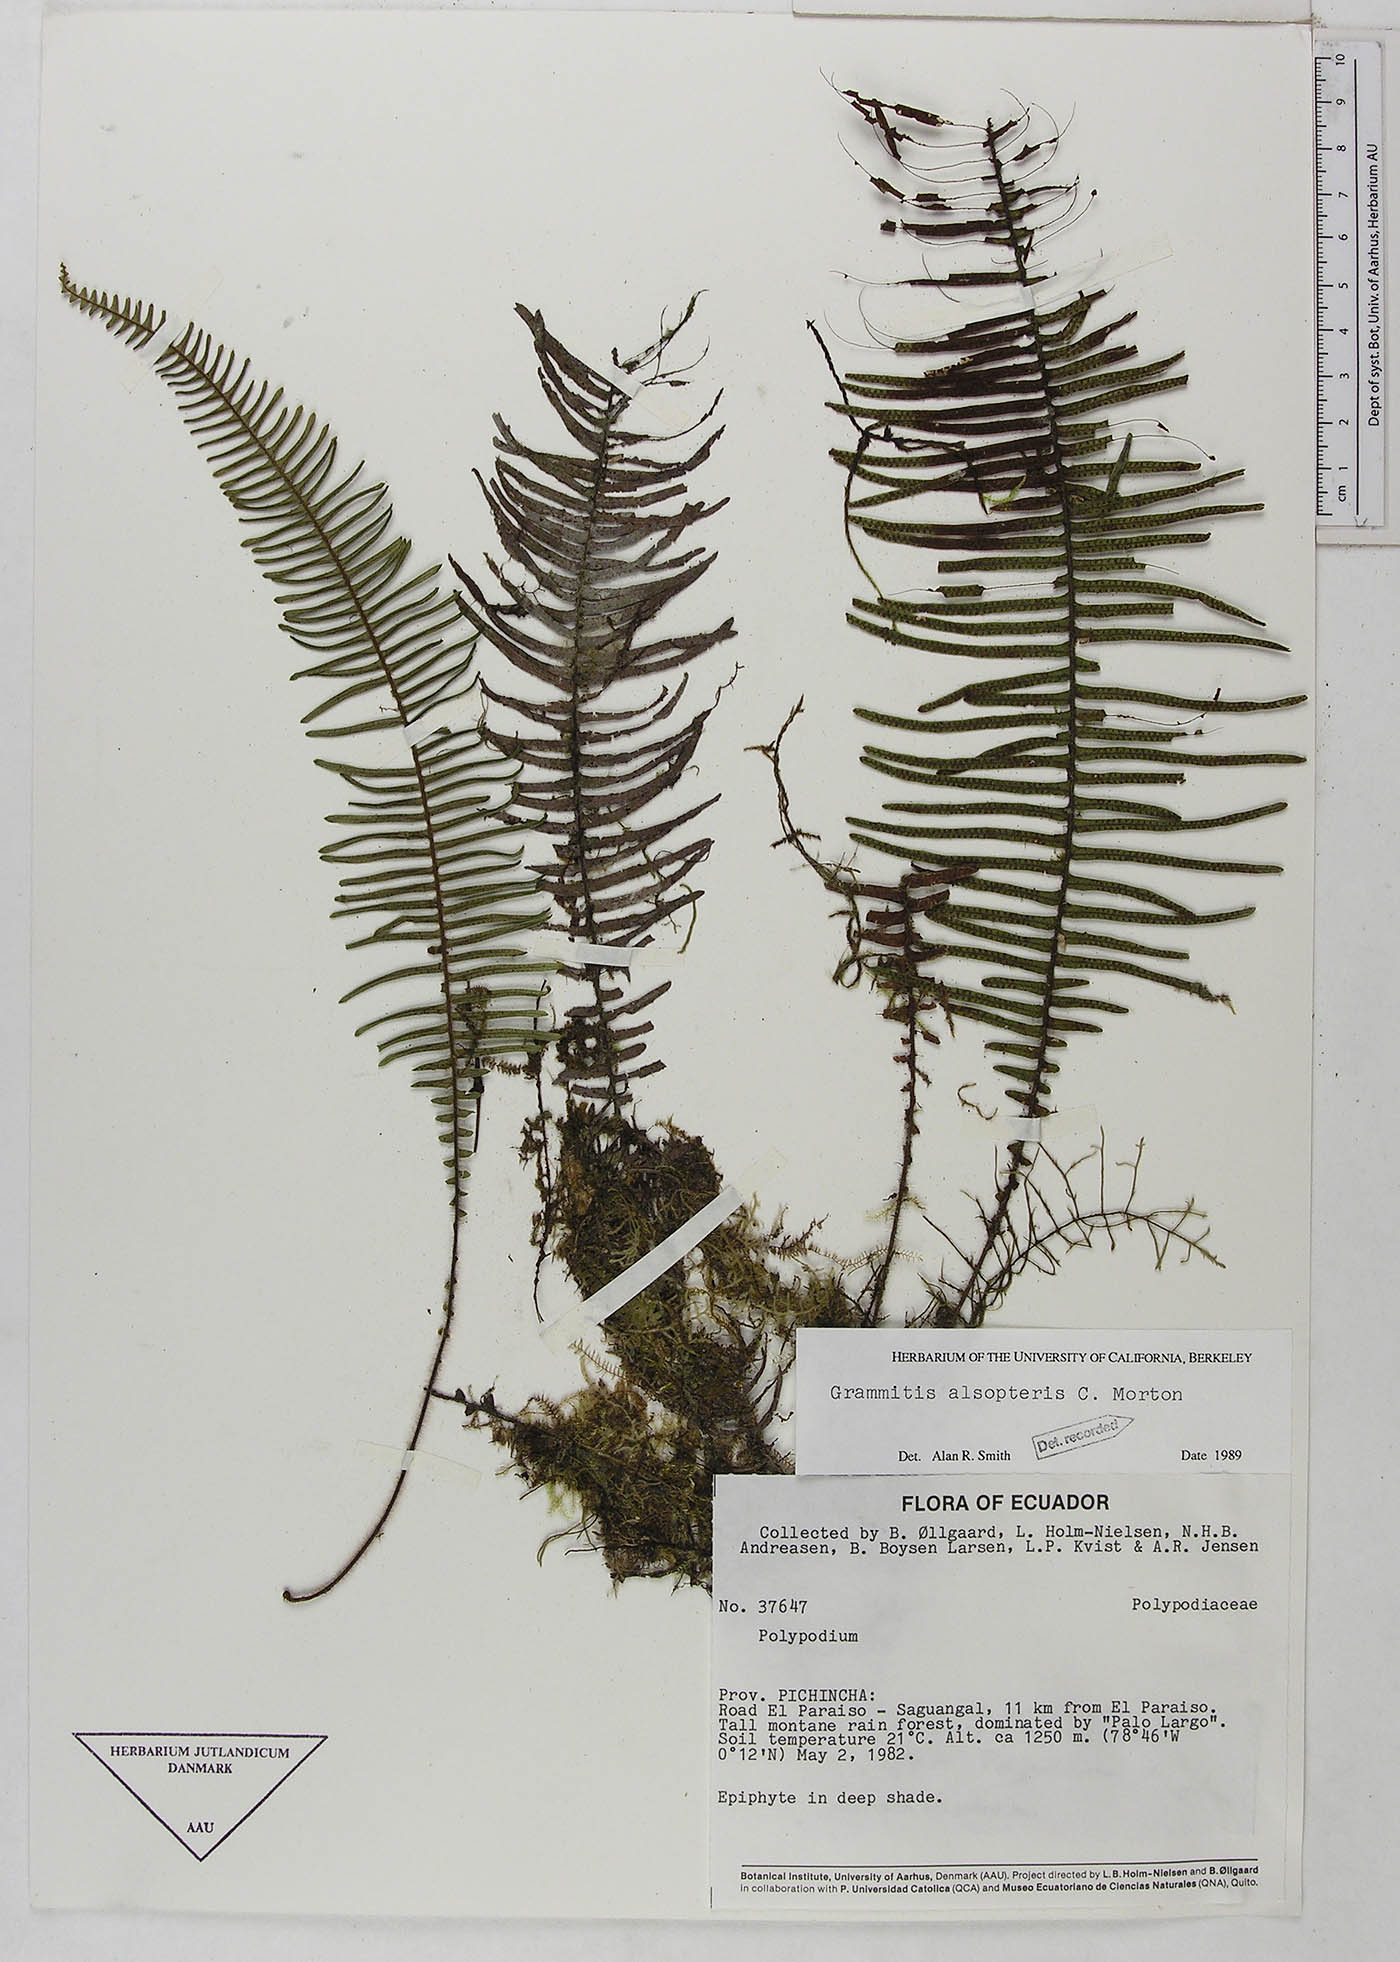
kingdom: Plantae
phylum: Tracheophyta
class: Polypodiopsida
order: Polypodiales
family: Polypodiaceae
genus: Mycopteris
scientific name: Mycopteris alsopteris
